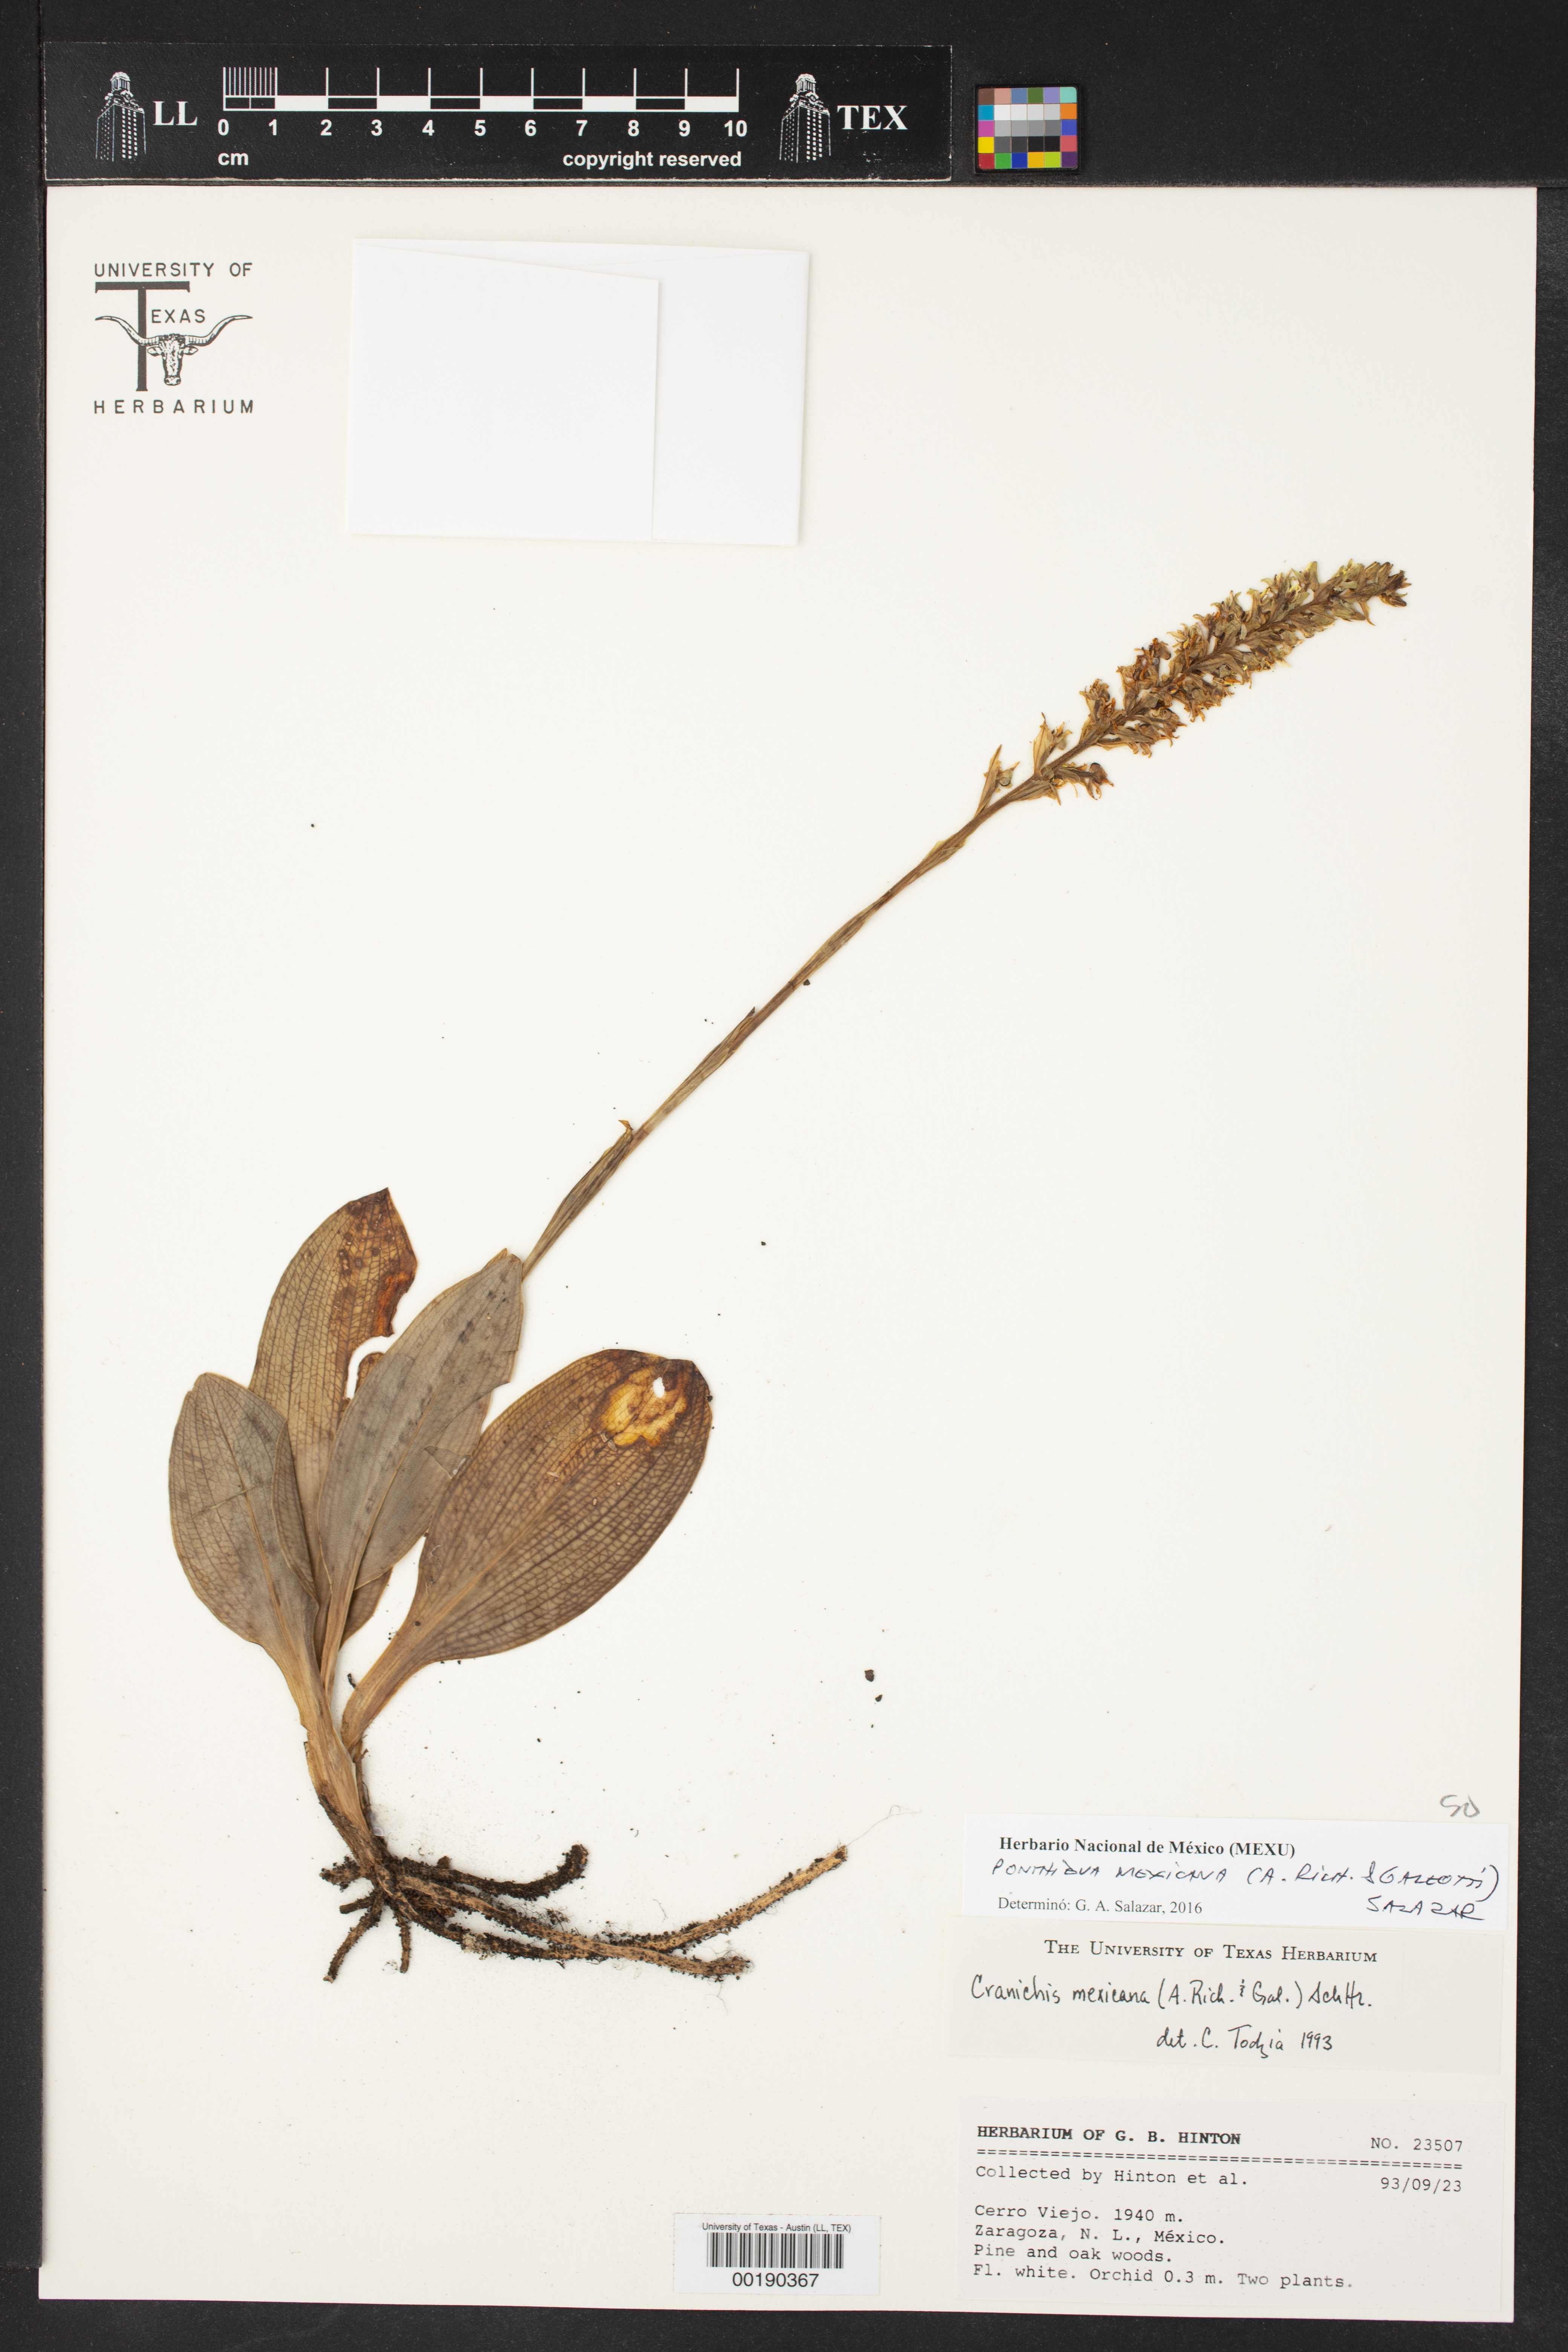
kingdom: Plantae
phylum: Tracheophyta
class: Liliopsida
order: Asparagales
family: Orchidaceae
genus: Ponthieva
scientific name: Ponthieva mexicana
